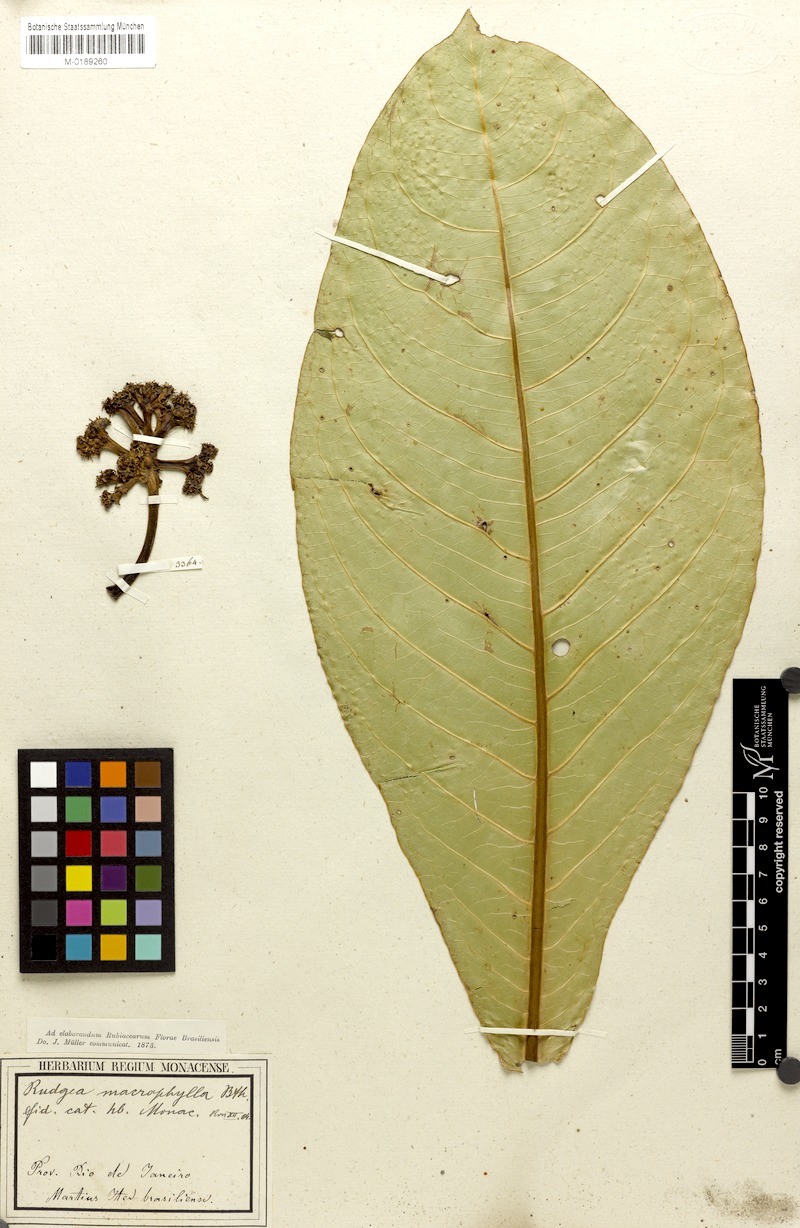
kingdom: Plantae
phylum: Tracheophyta
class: Magnoliopsida
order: Gentianales
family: Rubiaceae
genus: Rudgea
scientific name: Rudgea macrophylla
